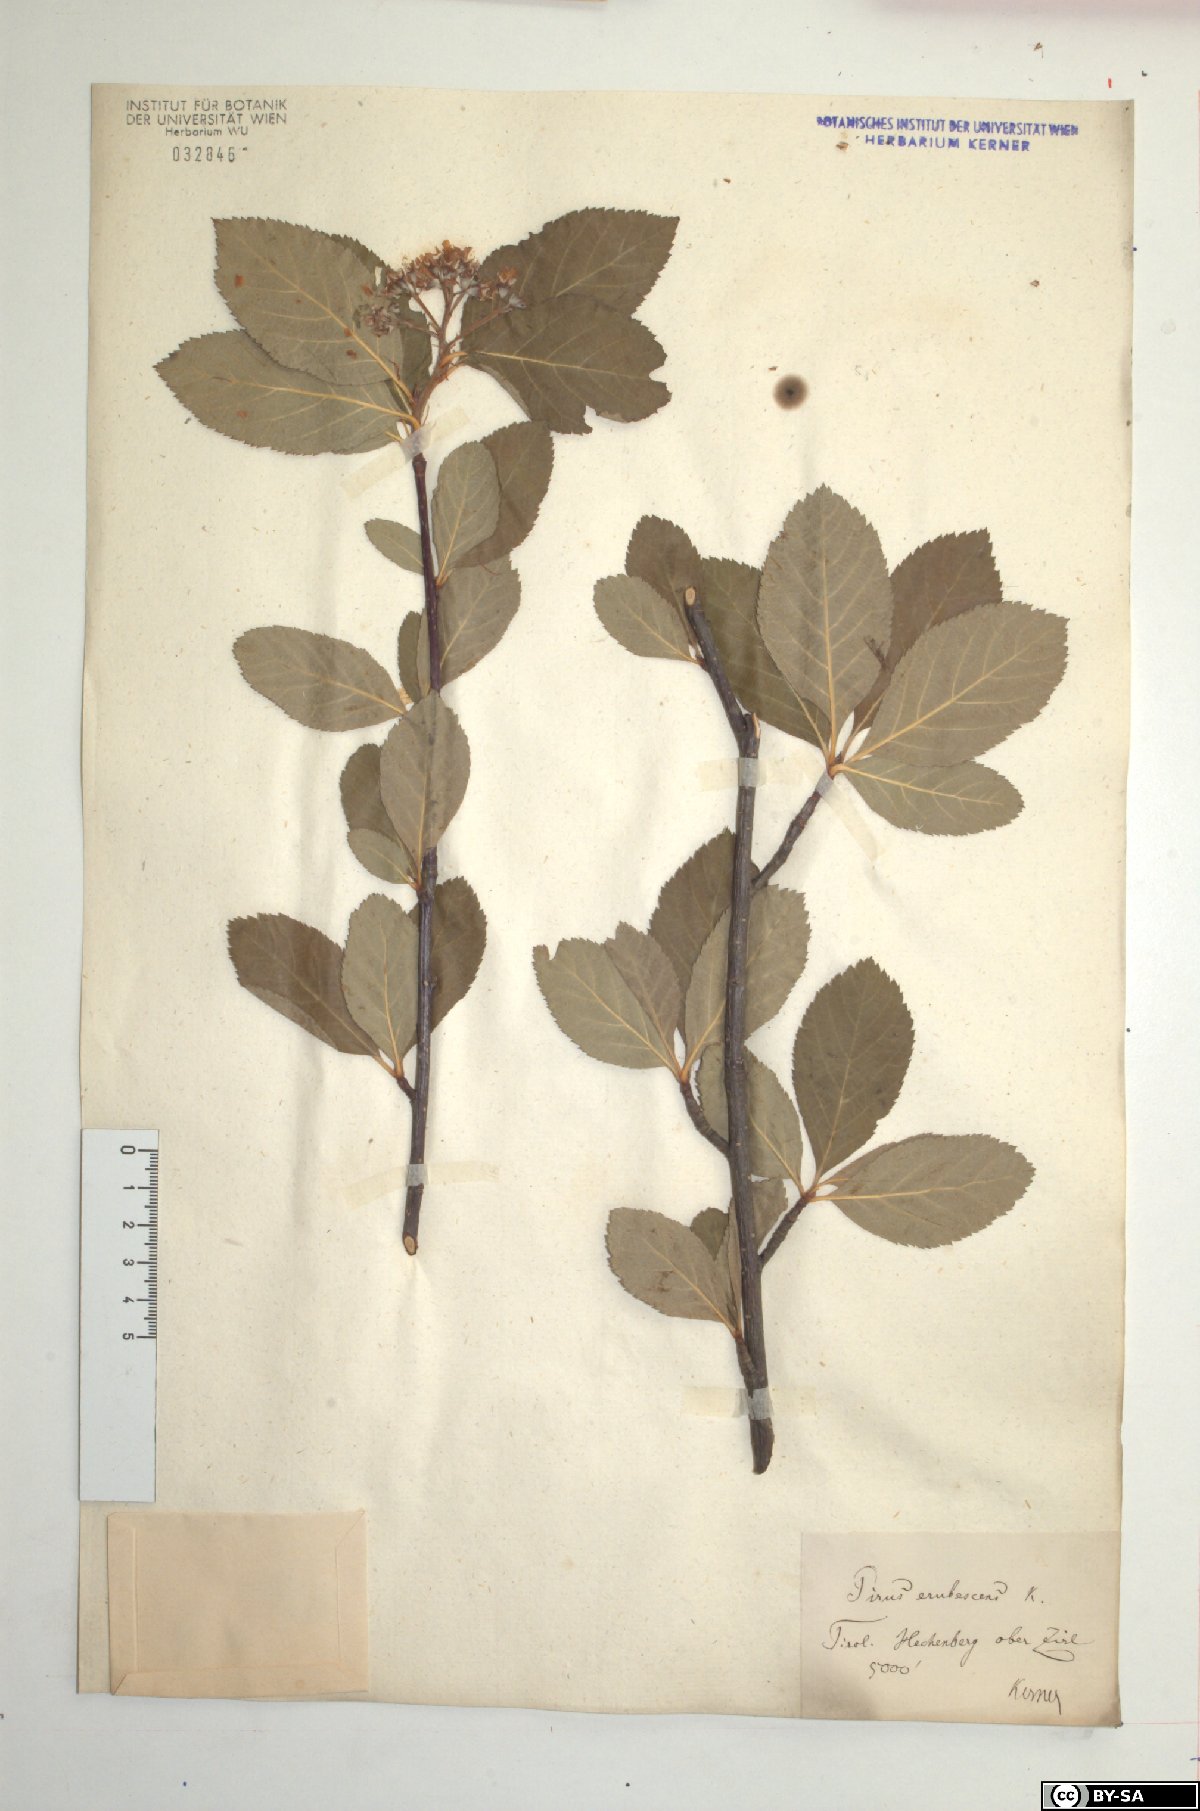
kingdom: Plantae
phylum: Tracheophyta
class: Magnoliopsida
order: Rosales
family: Rosaceae
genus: Majovskya
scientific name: Majovskya sudetica
